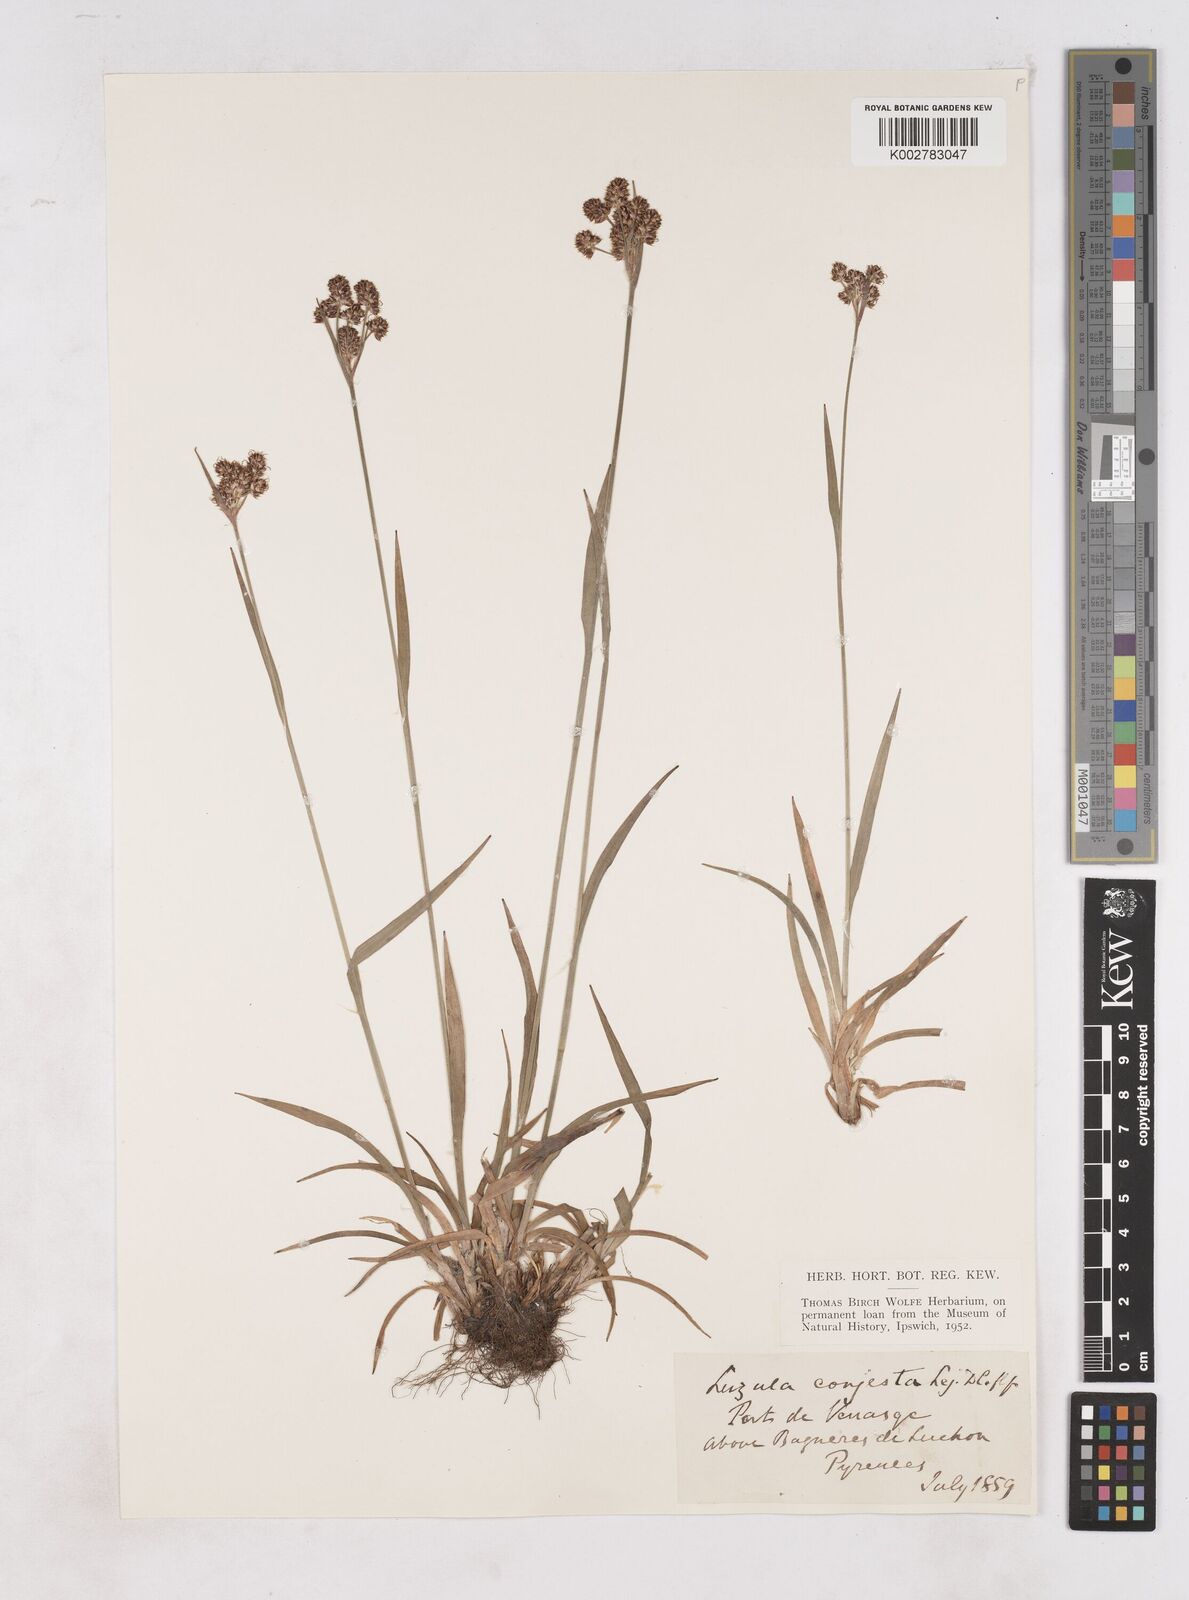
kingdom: Plantae
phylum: Tracheophyta
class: Liliopsida
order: Poales
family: Juncaceae
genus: Luzula
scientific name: Luzula campestris
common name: Field wood-rush
